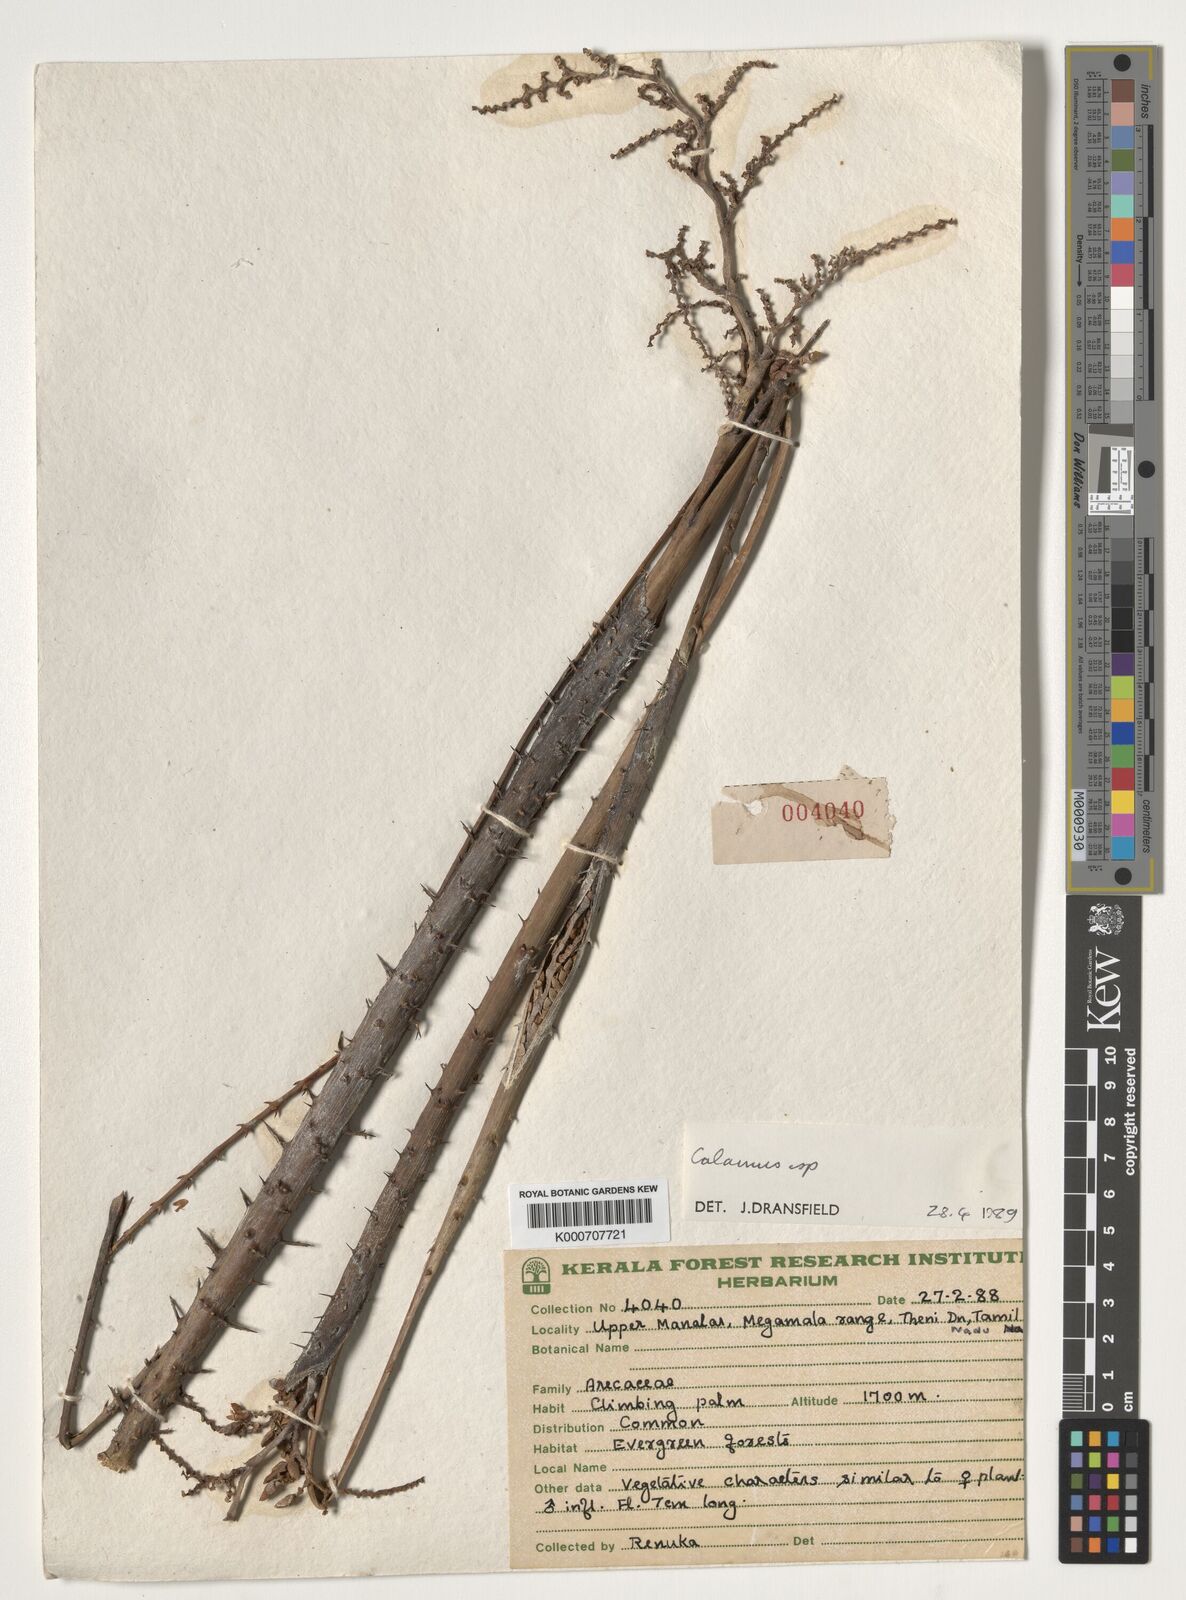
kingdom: Plantae
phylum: Tracheophyta
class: Liliopsida
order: Arecales
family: Arecaceae
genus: Calamus
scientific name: Calamus
